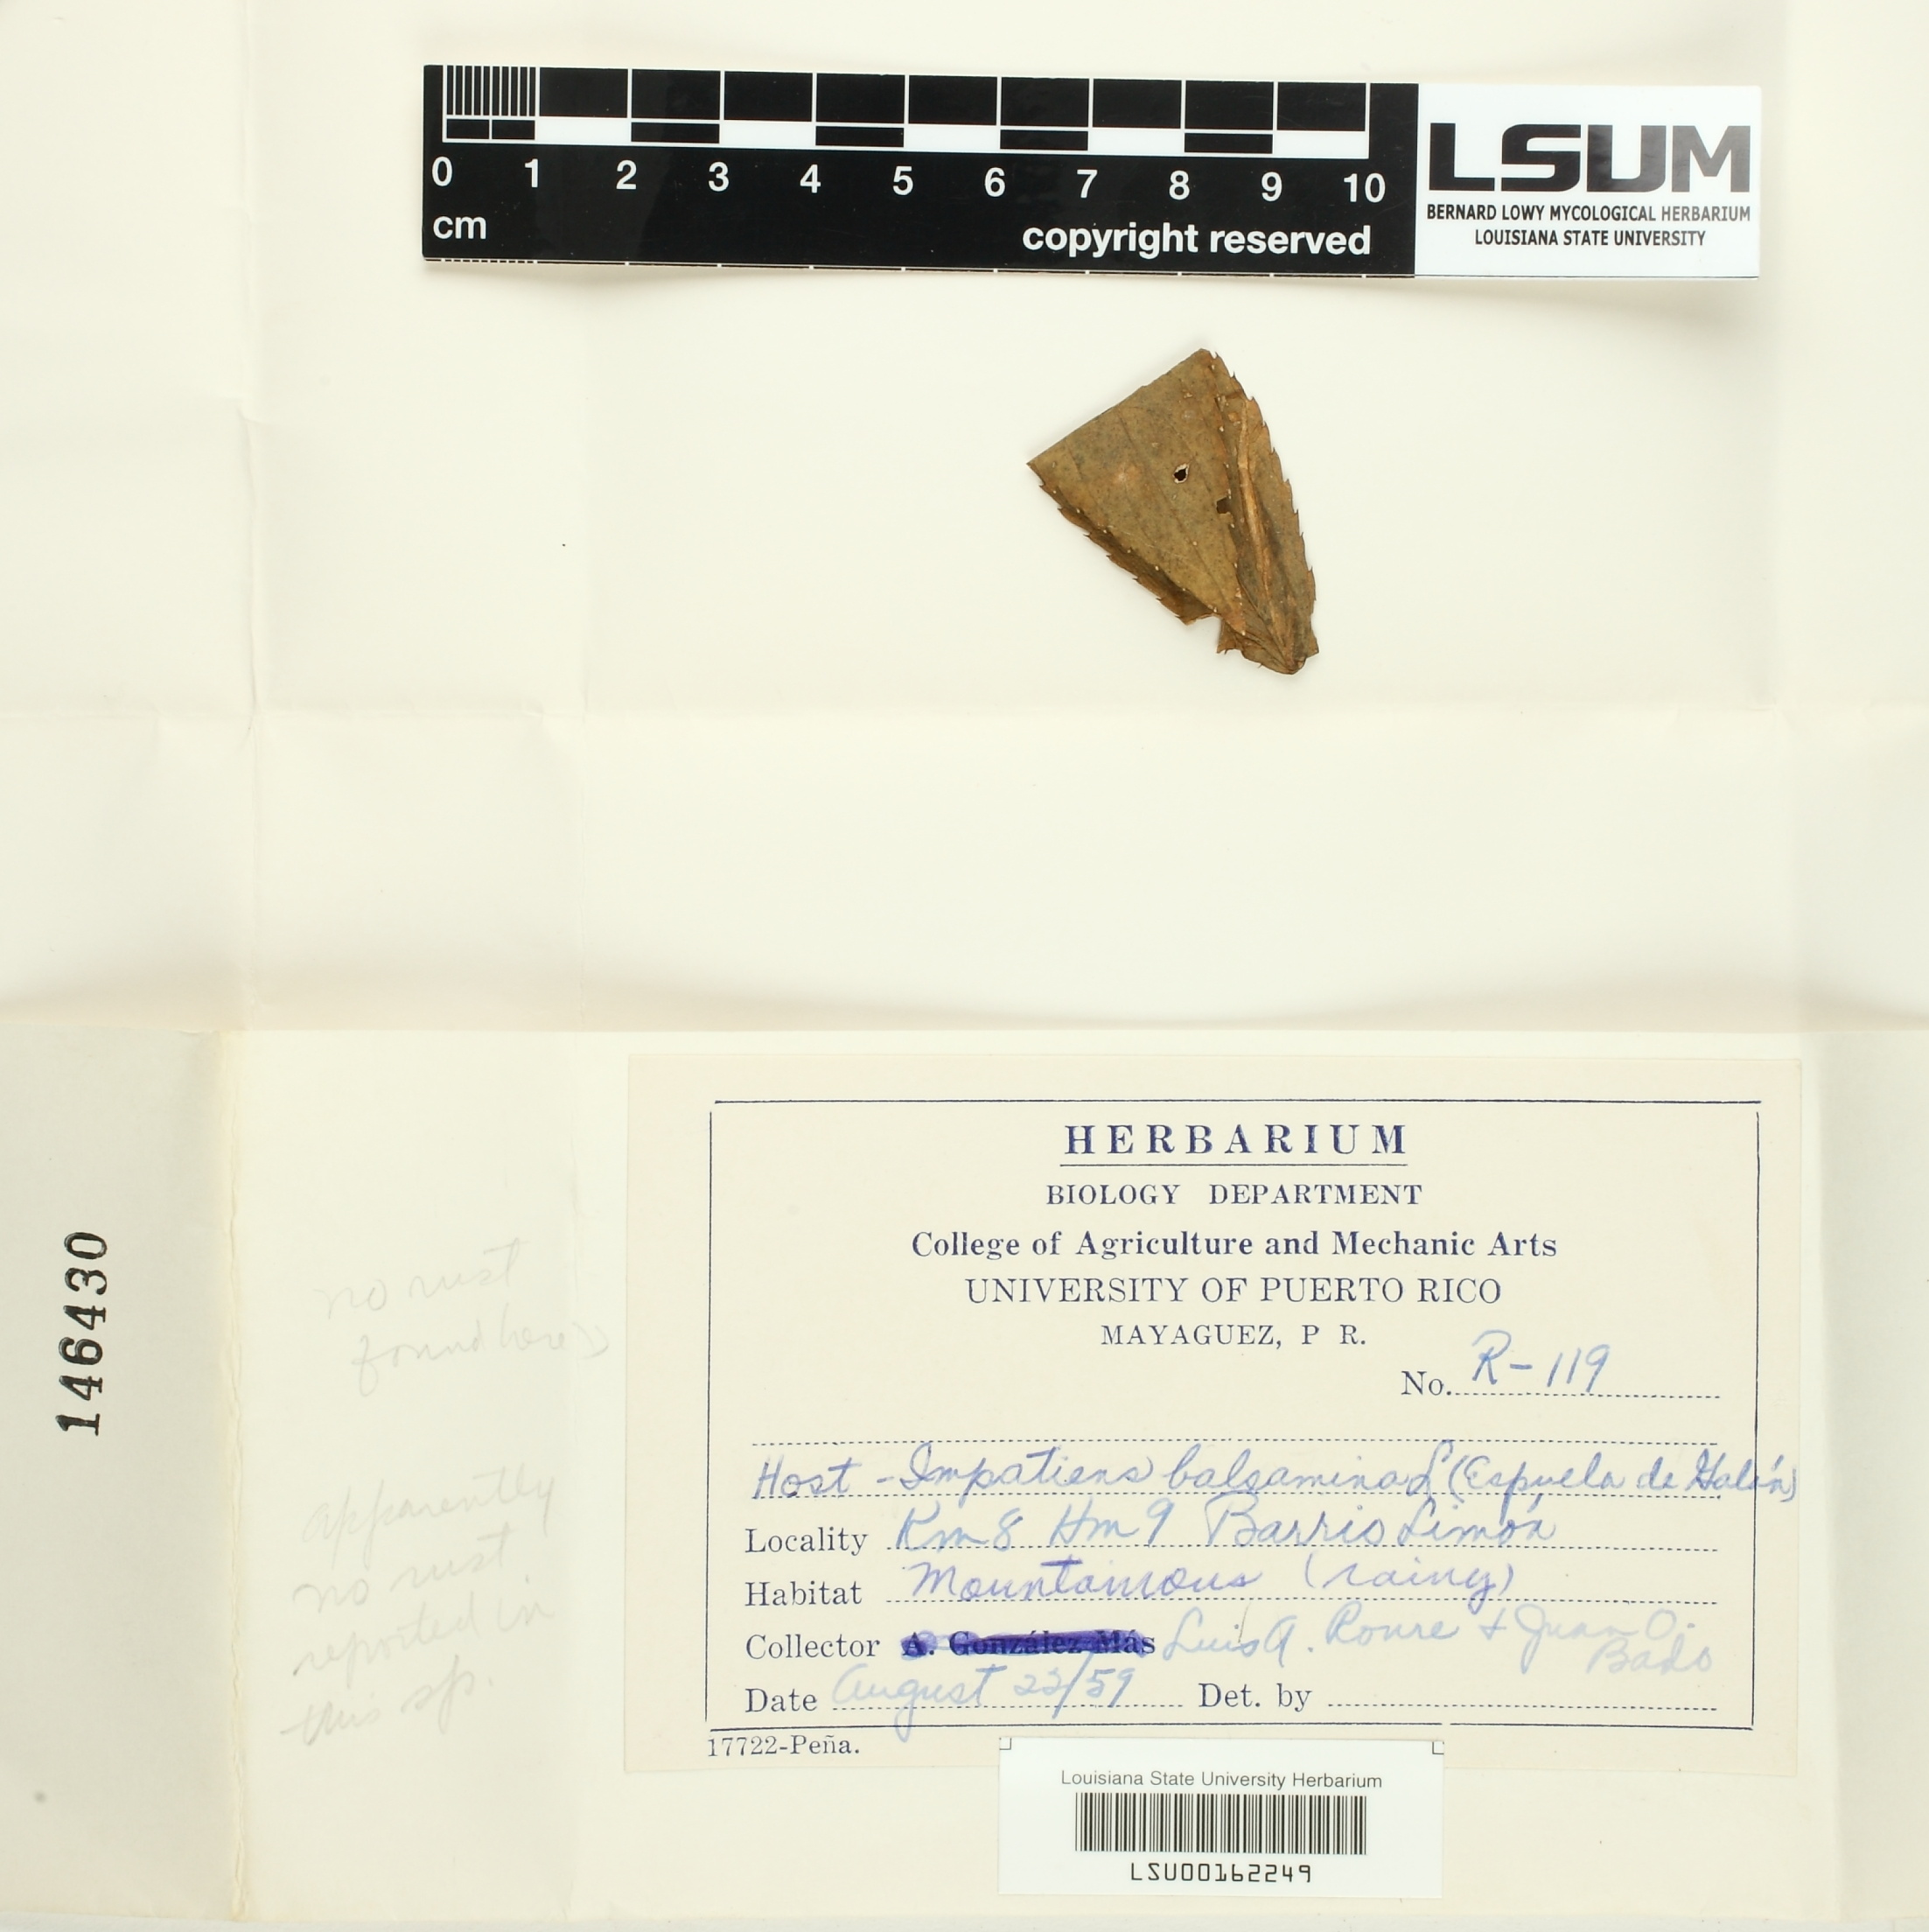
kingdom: Fungi
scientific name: Fungi
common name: Fungi
